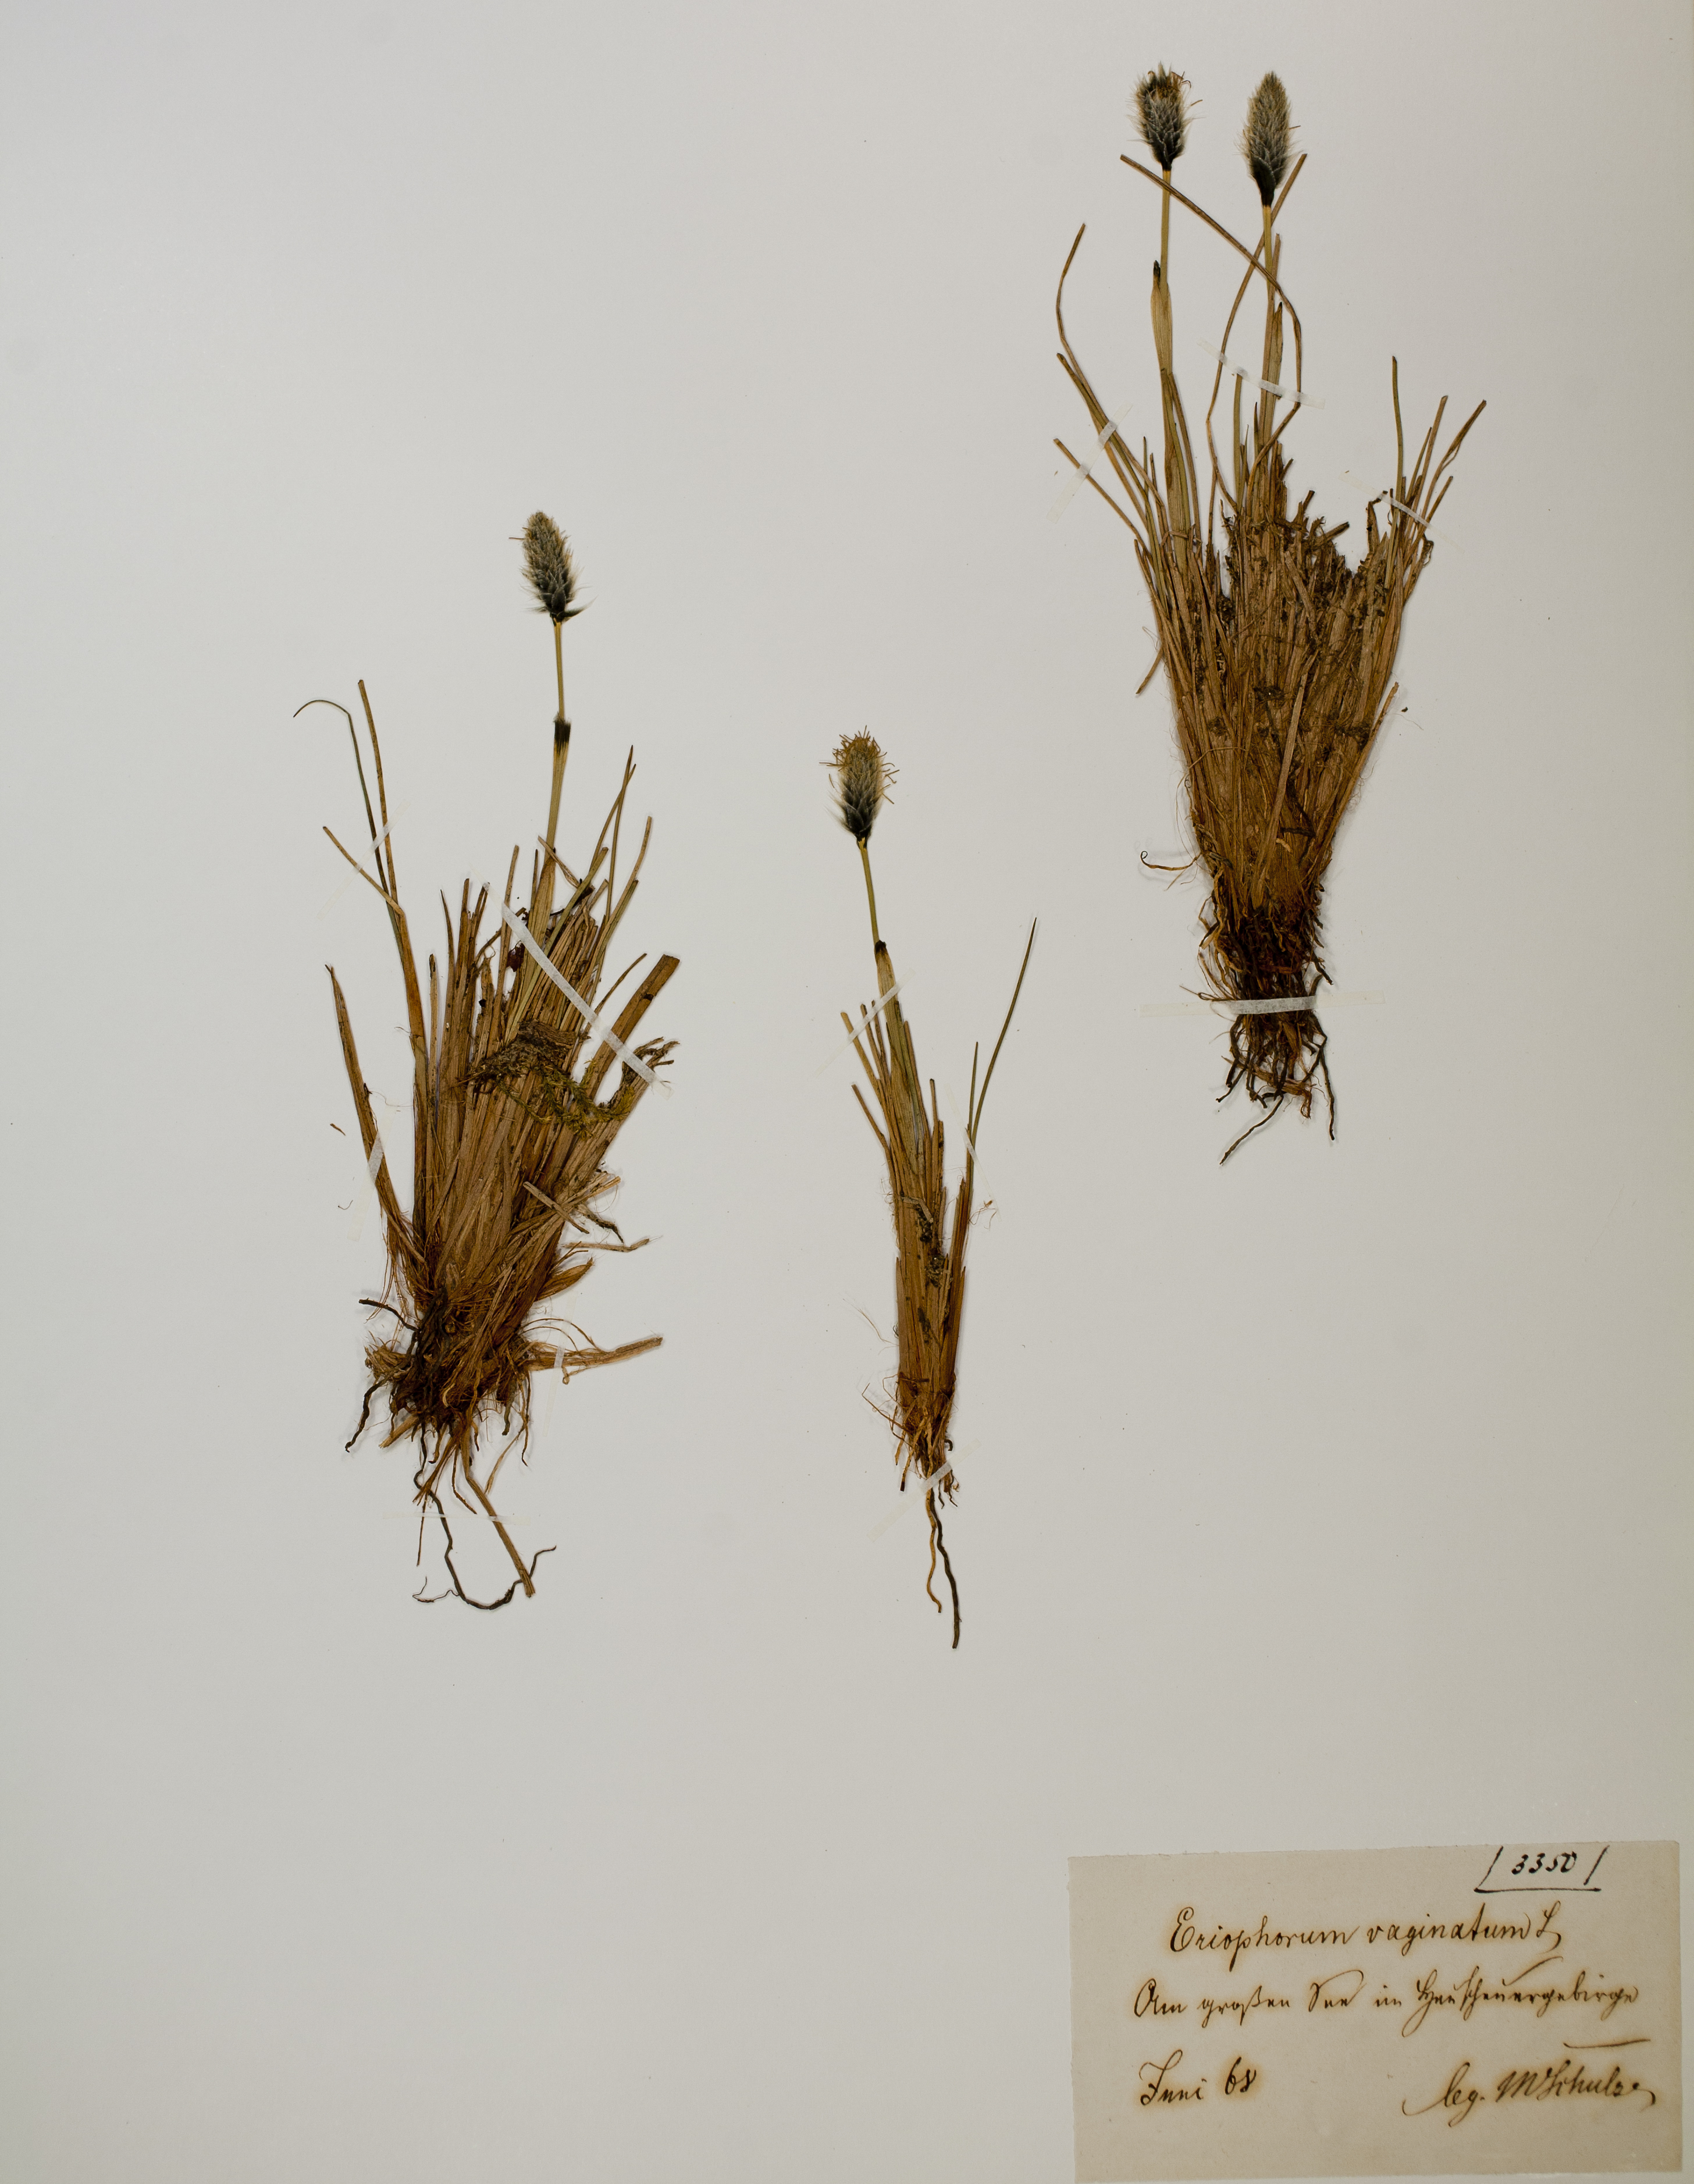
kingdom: Plantae
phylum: Tracheophyta
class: Liliopsida
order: Poales
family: Cyperaceae
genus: Eriophorum
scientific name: Eriophorum vaginatum
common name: Hare's-tail cottongrass
